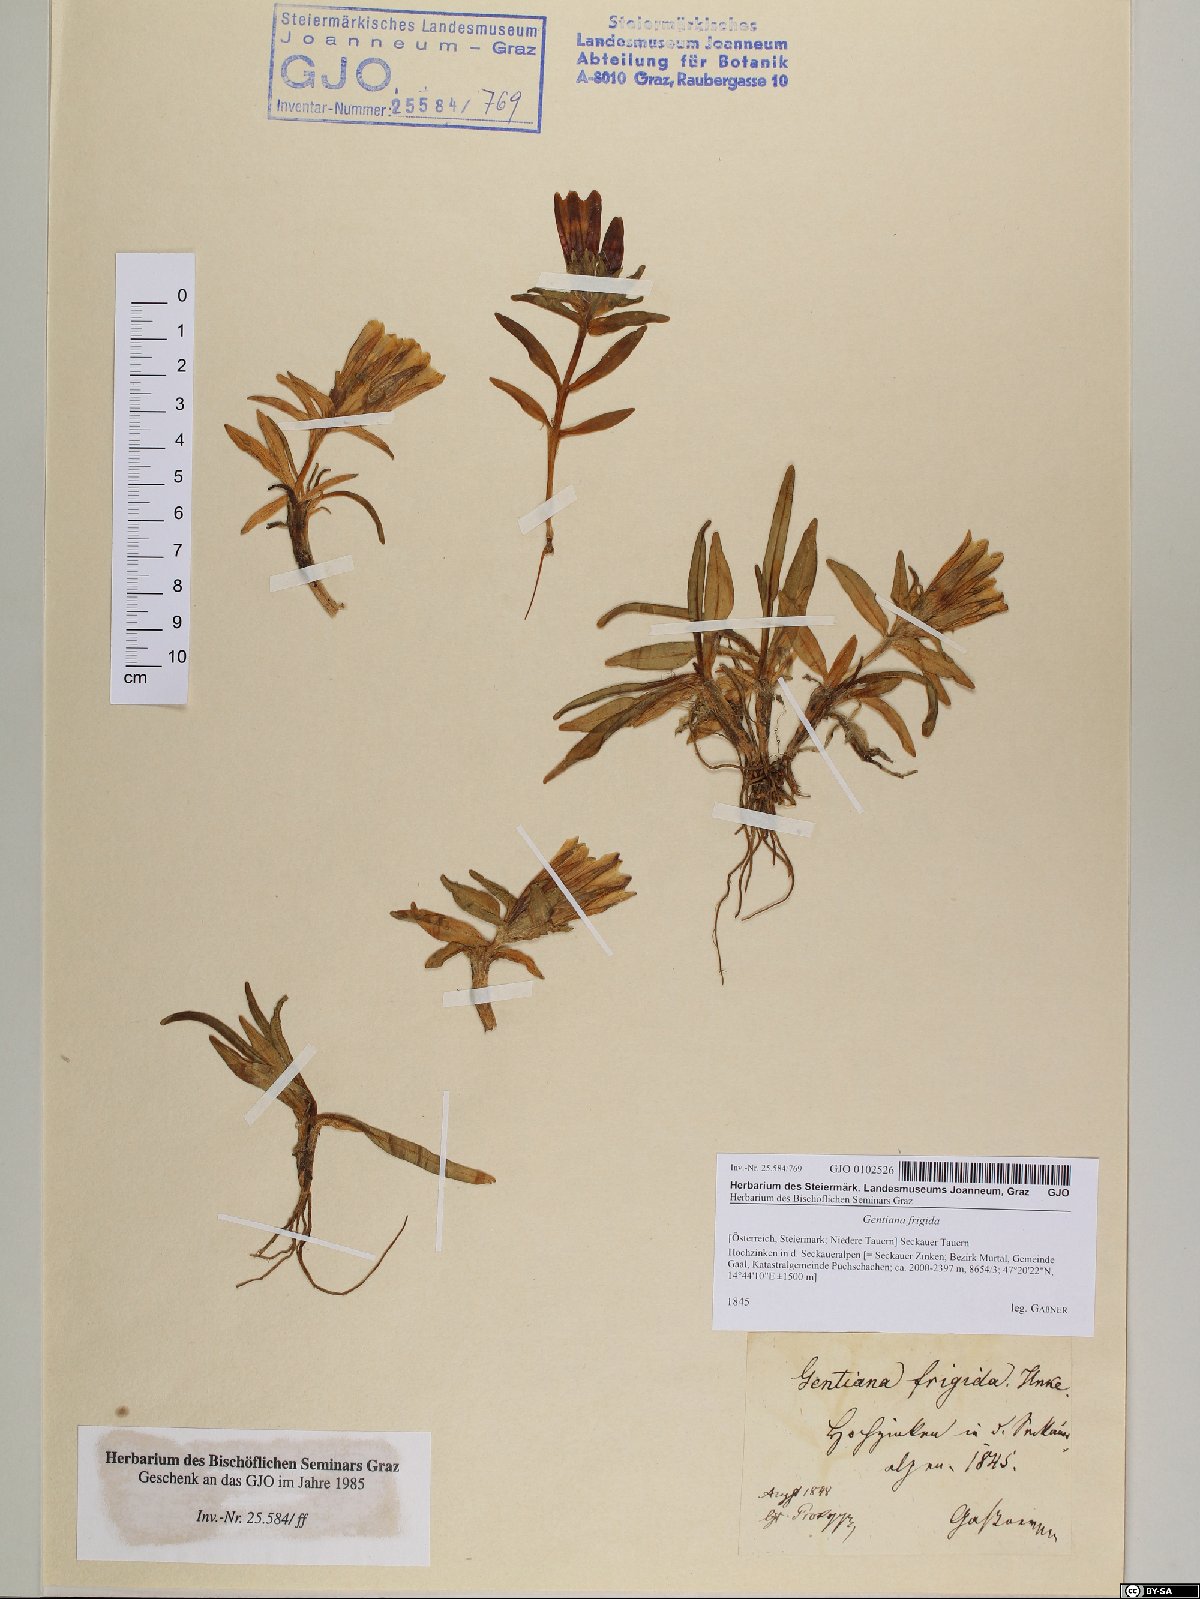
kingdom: Plantae
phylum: Tracheophyta
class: Magnoliopsida
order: Gentianales
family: Gentianaceae
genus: Gentiana
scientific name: Gentiana frigida
